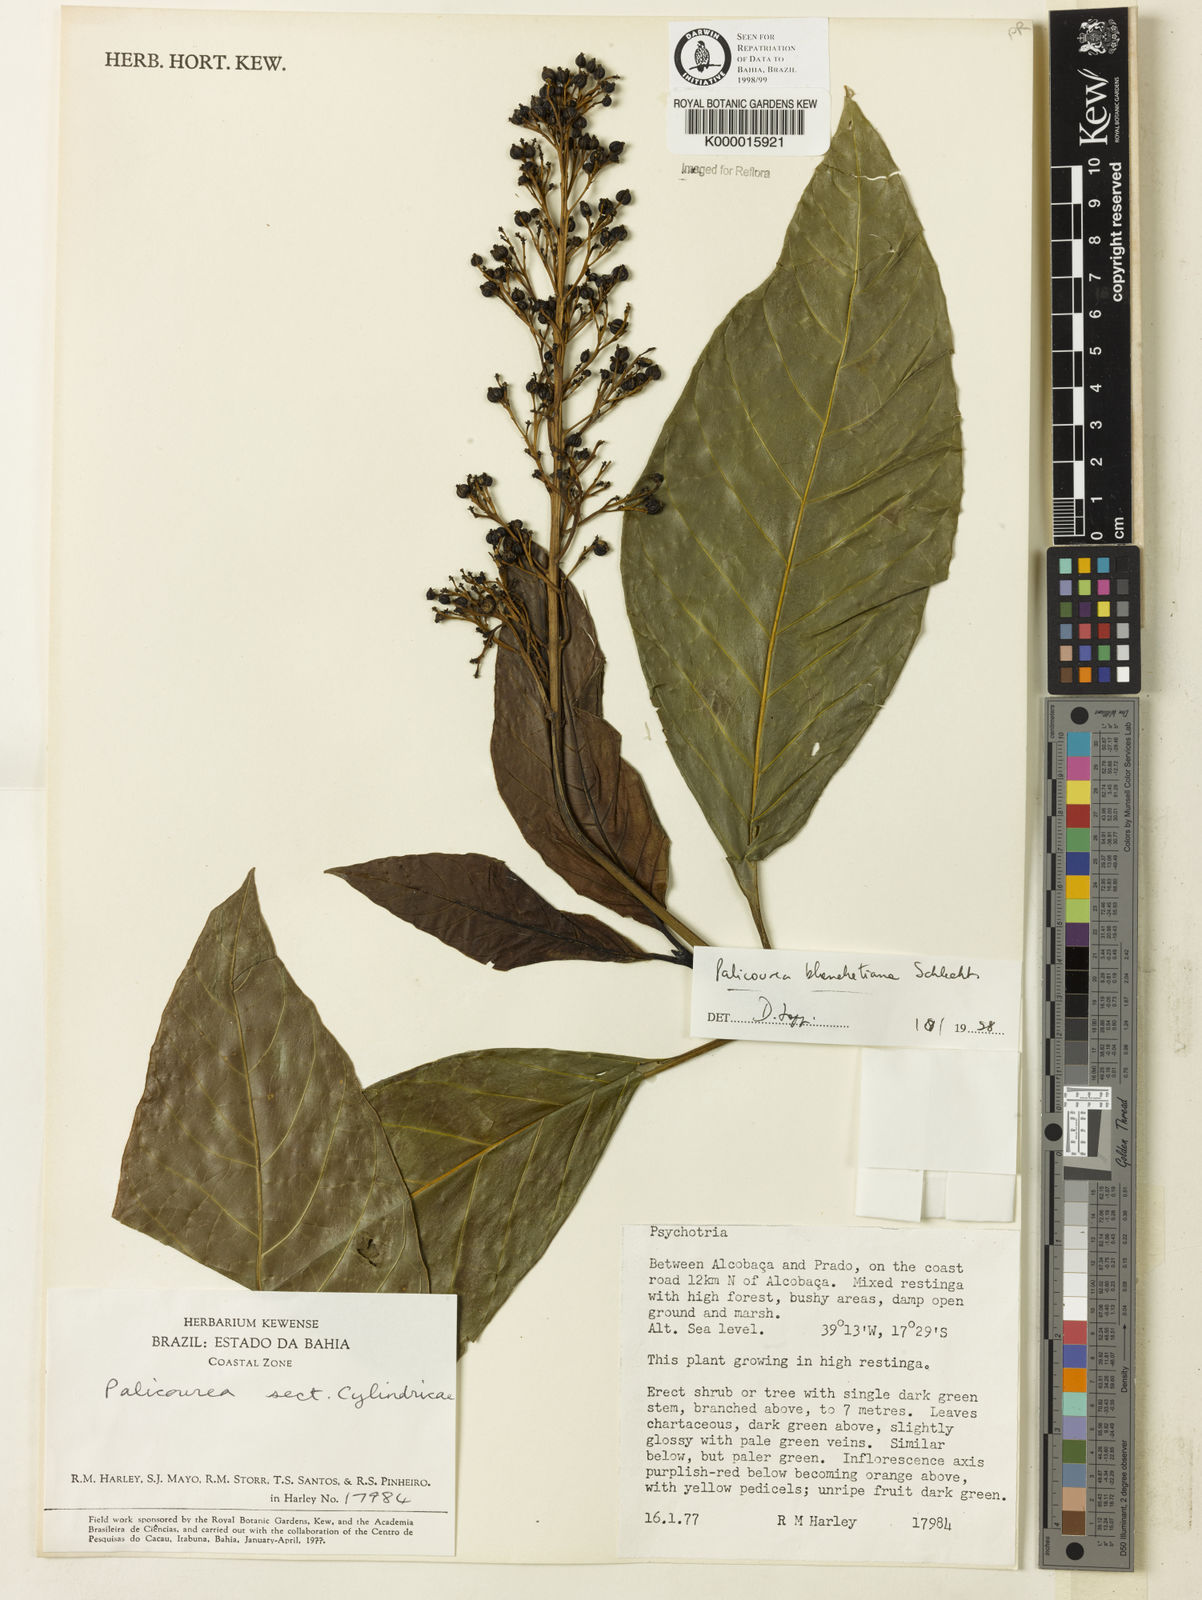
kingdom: Plantae
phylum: Tracheophyta
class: Magnoliopsida
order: Gentianales
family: Rubiaceae
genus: Palicourea
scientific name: Palicourea blanchetiana
